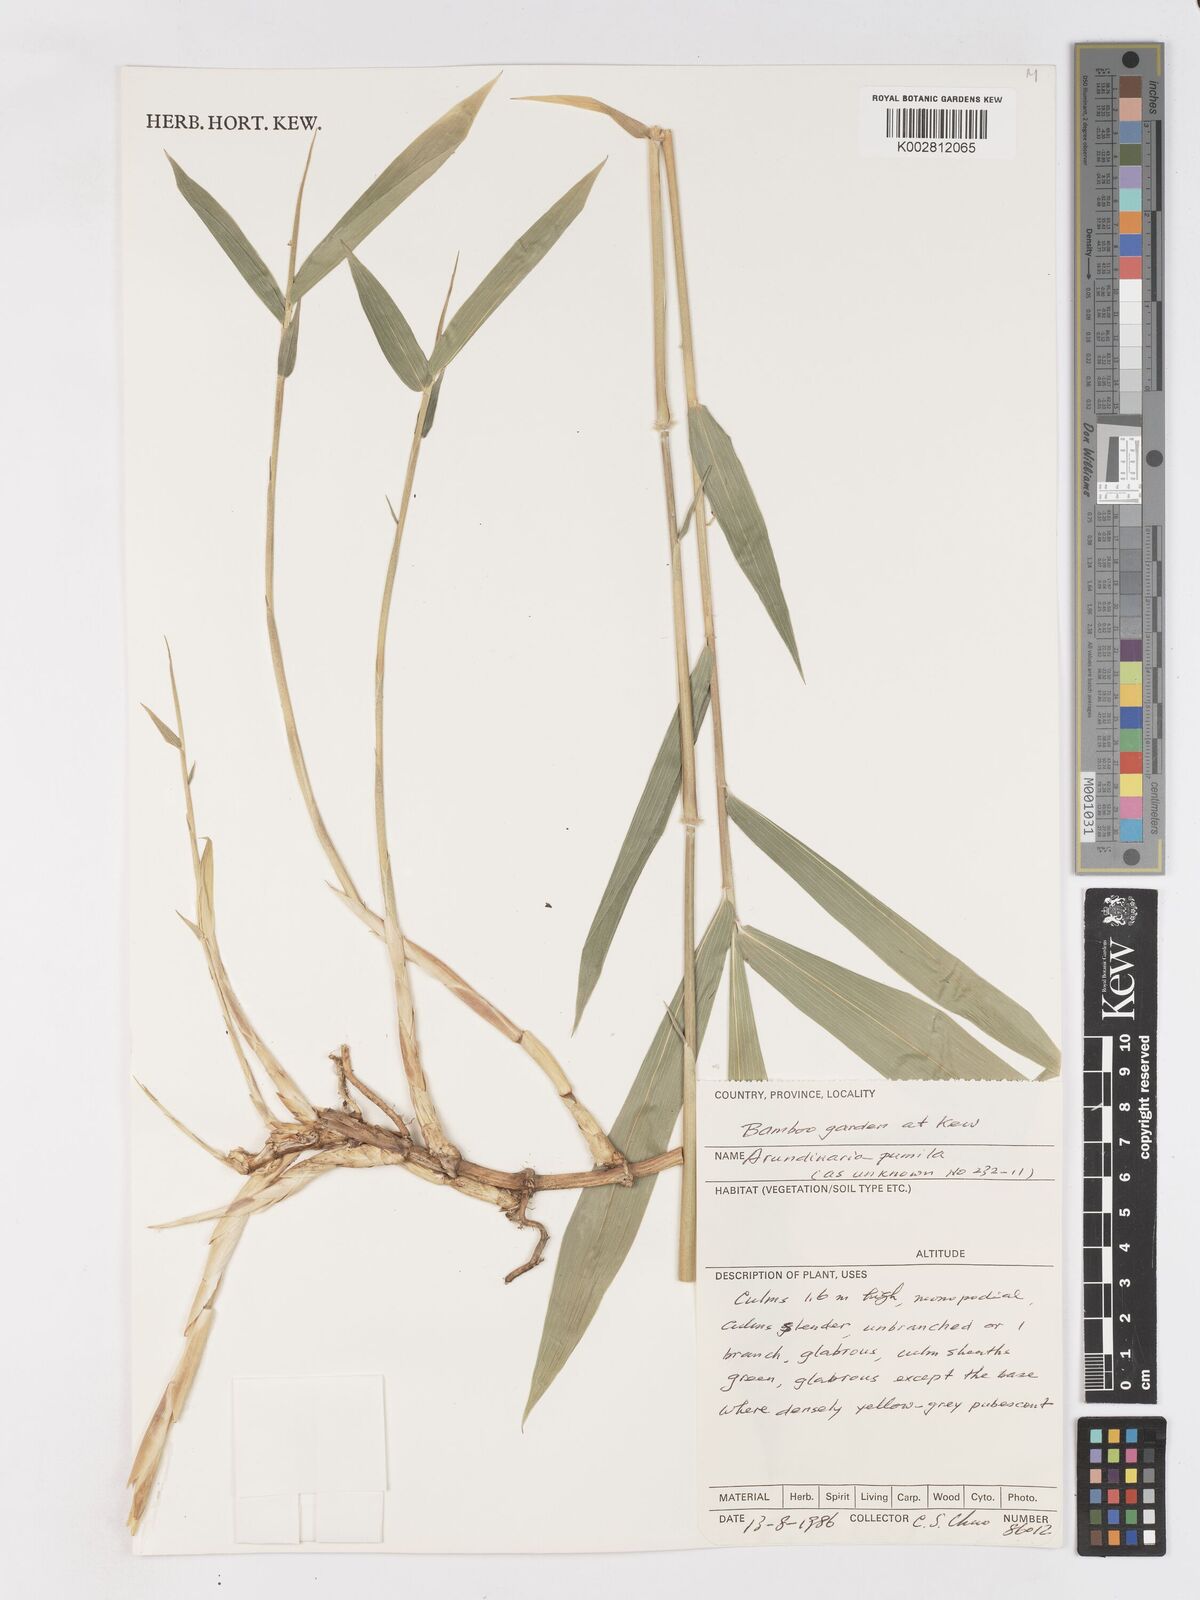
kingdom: Plantae
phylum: Tracheophyta
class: Liliopsida
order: Poales
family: Poaceae
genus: Pleioblastus
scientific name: Pleioblastus argenteostriatus
